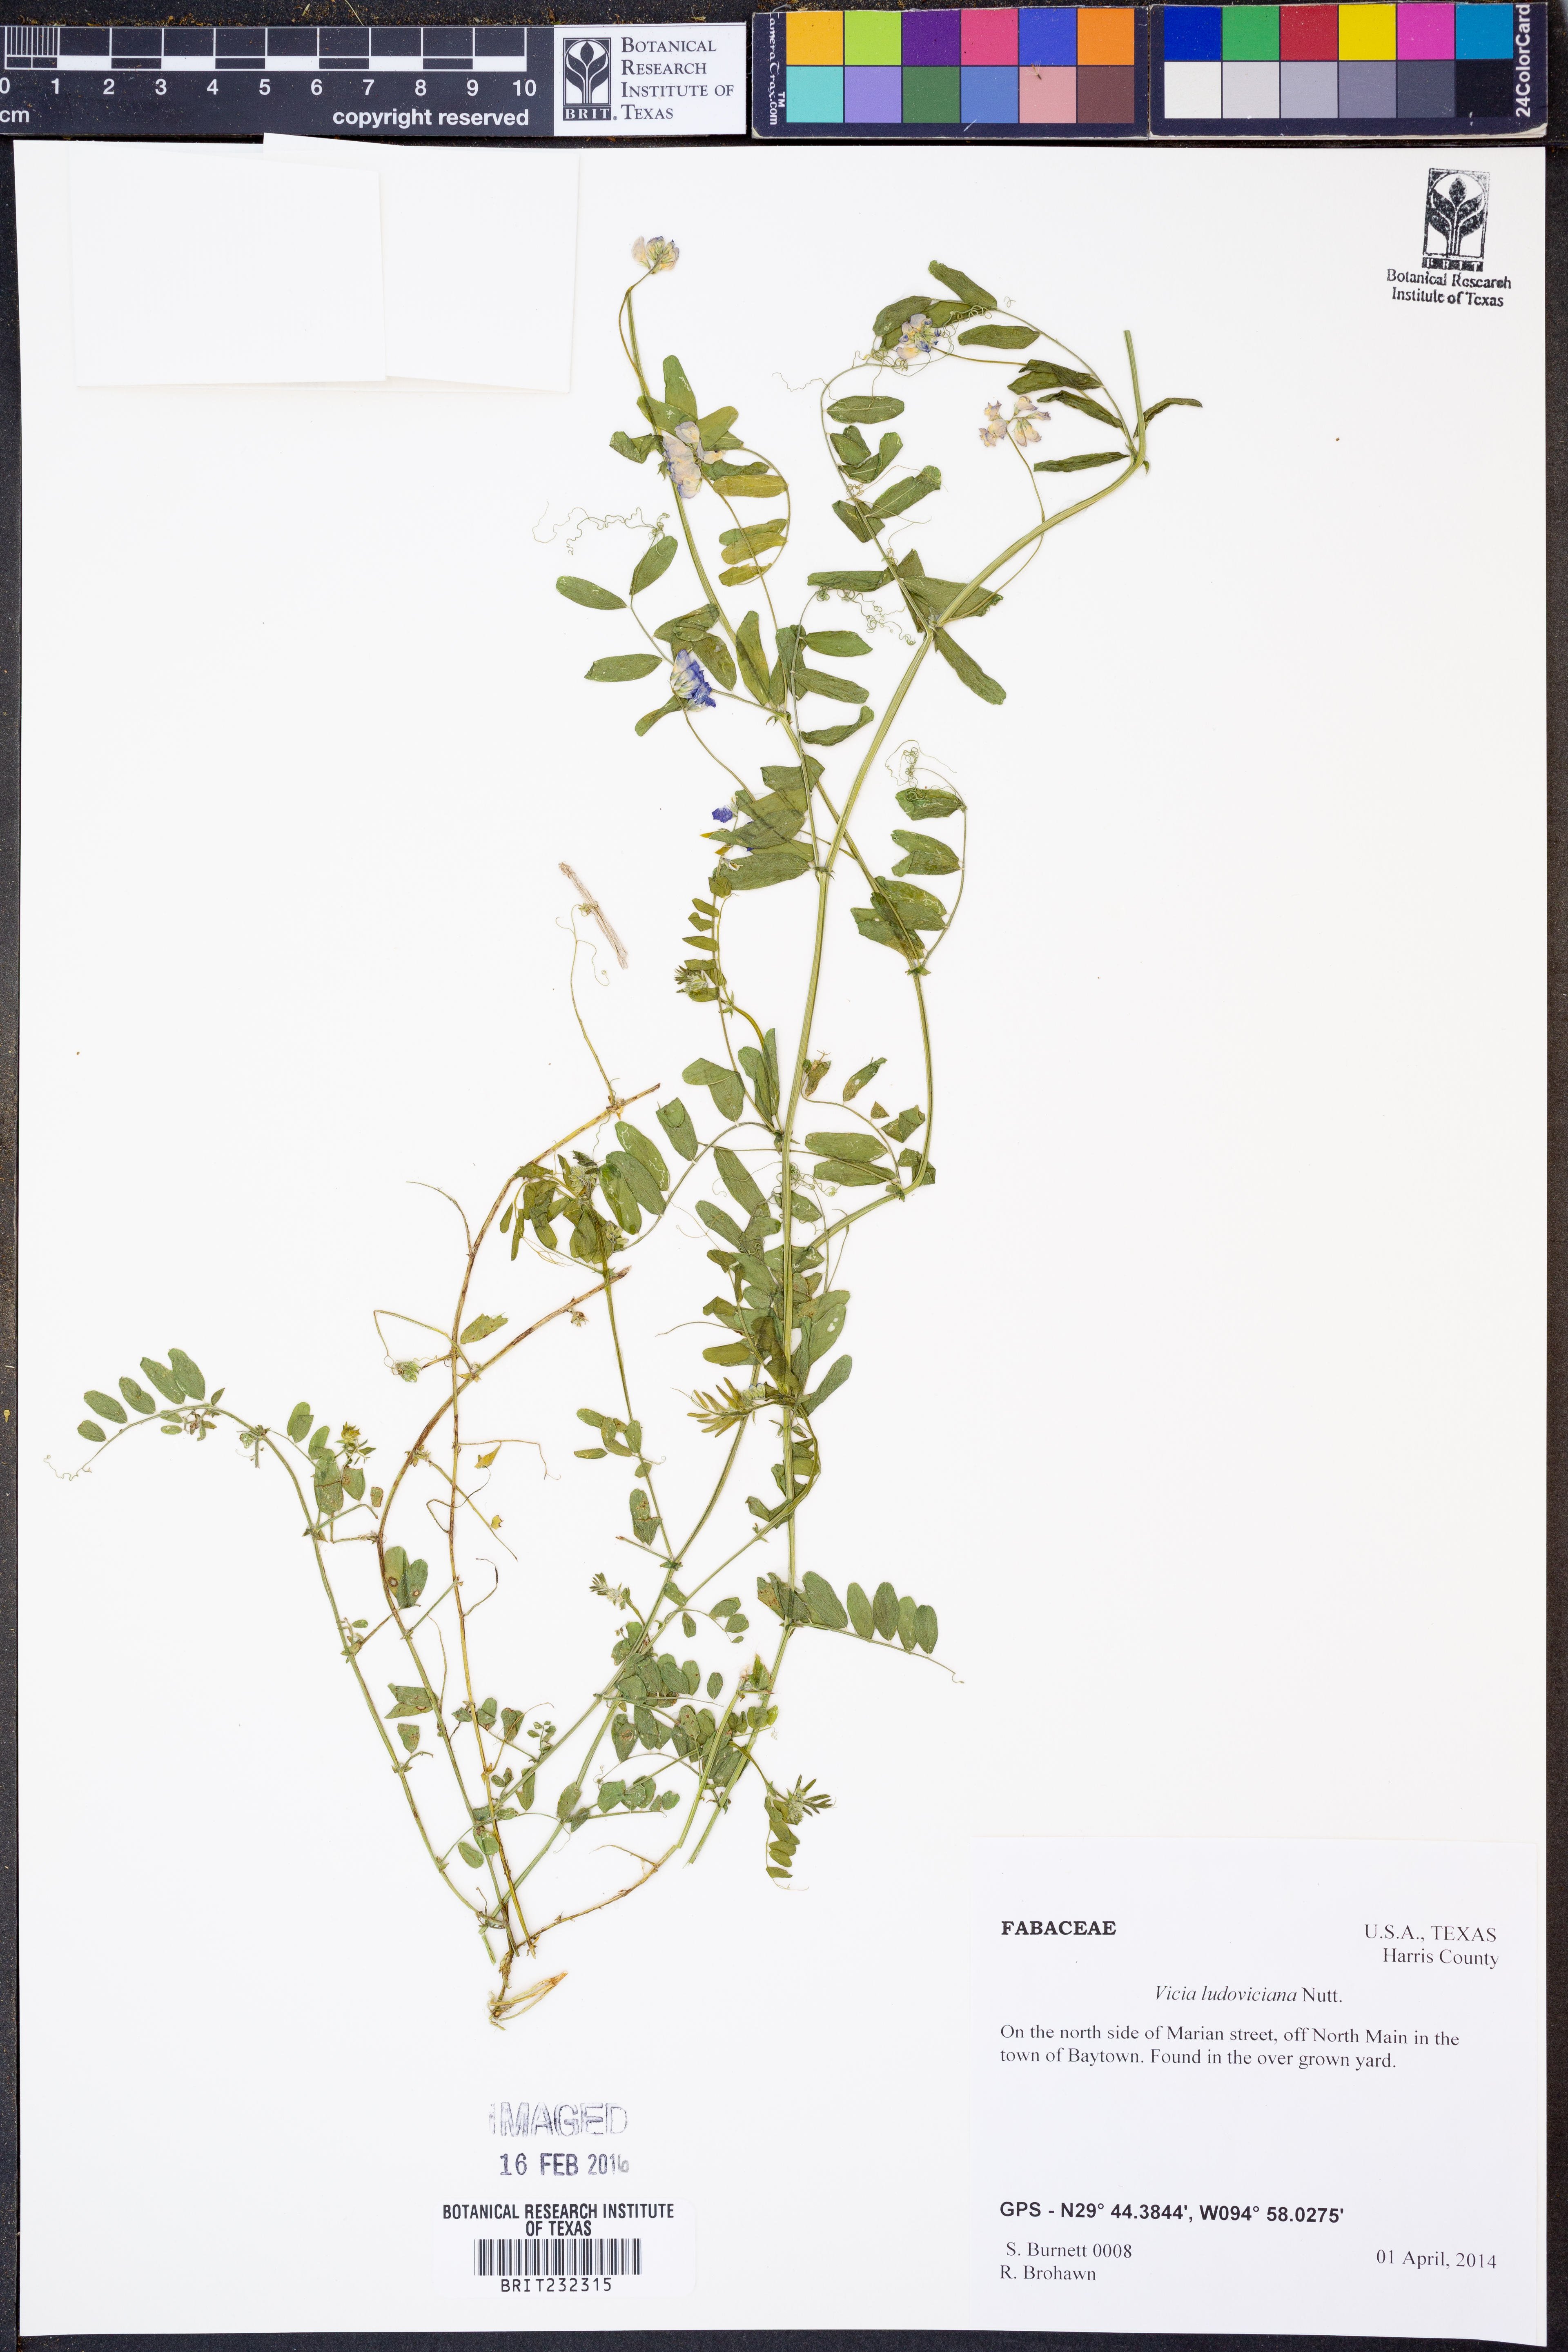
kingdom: Plantae
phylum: Tracheophyta
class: Magnoliopsida
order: Fabales
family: Fabaceae
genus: Vicia
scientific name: Vicia ludoviciana
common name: Louisiana vetch
